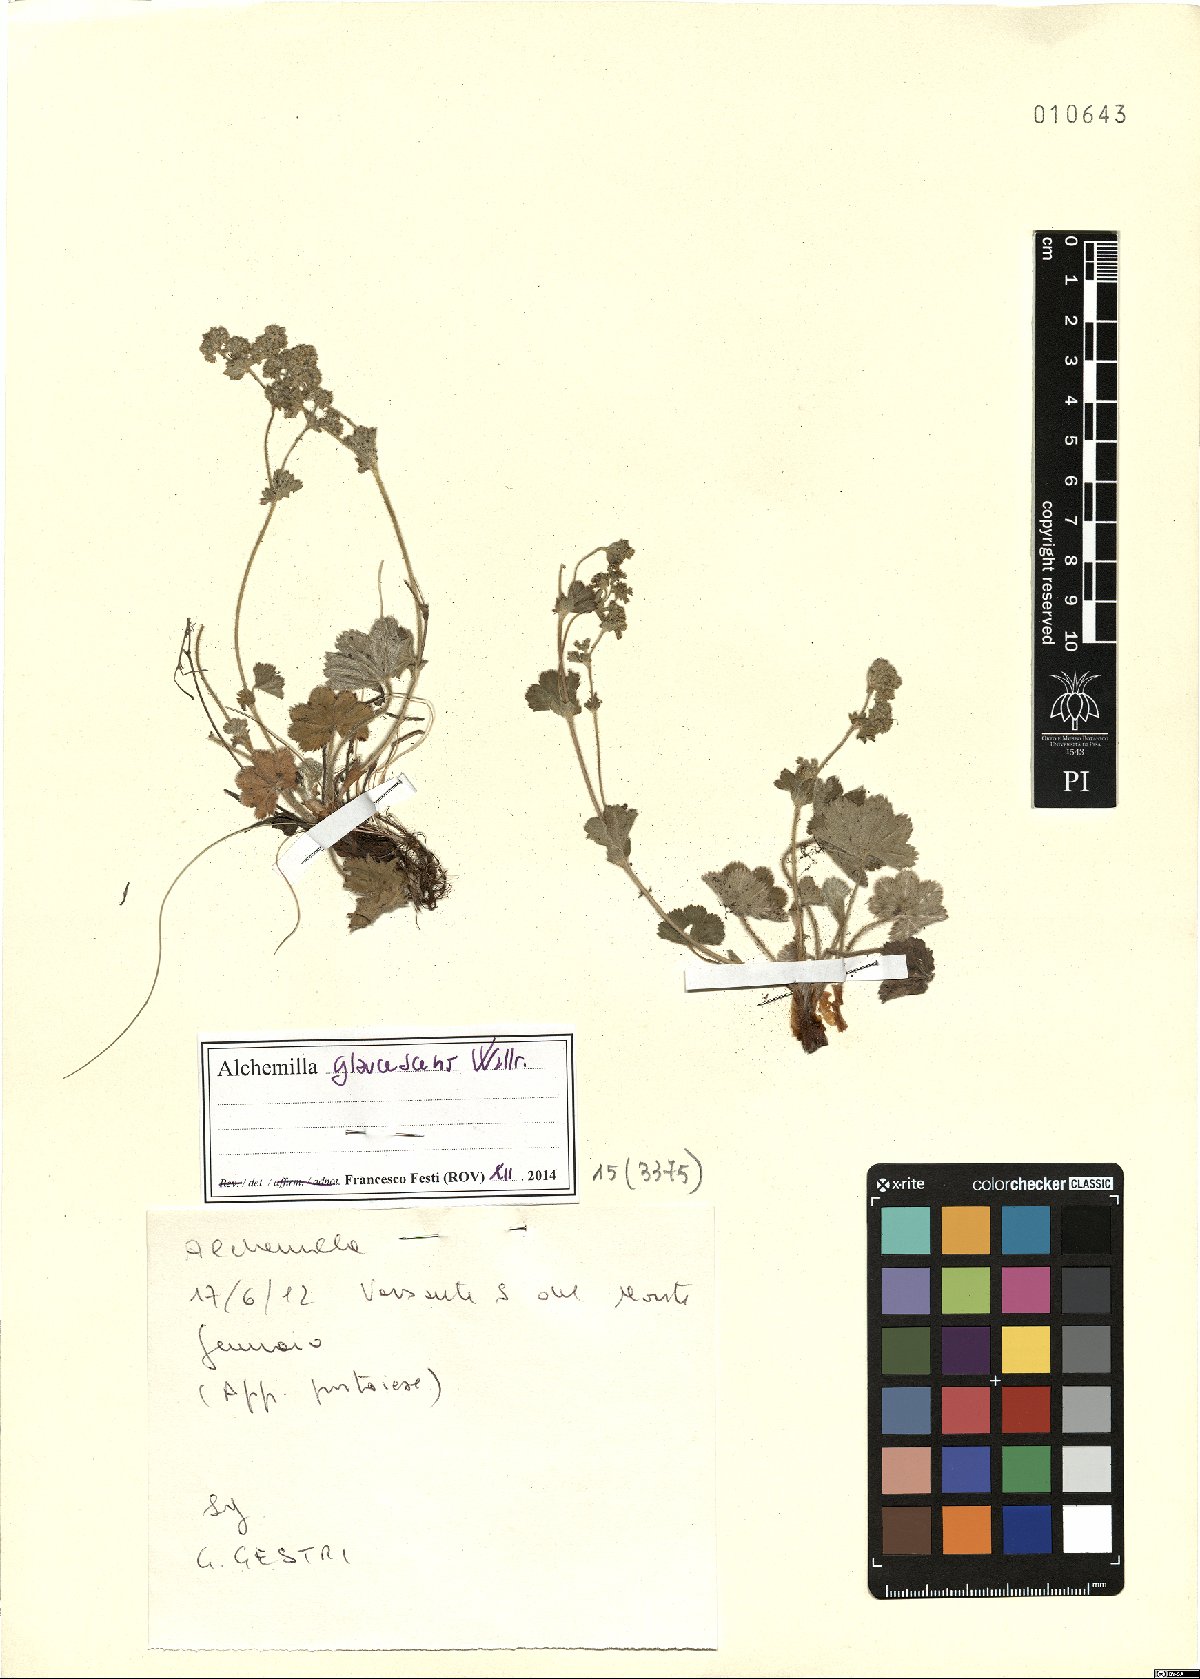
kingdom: Plantae
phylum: Tracheophyta
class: Magnoliopsida
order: Rosales
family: Rosaceae
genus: Alchemilla
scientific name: Alchemilla glaucescens
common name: Silky lady's mantle
